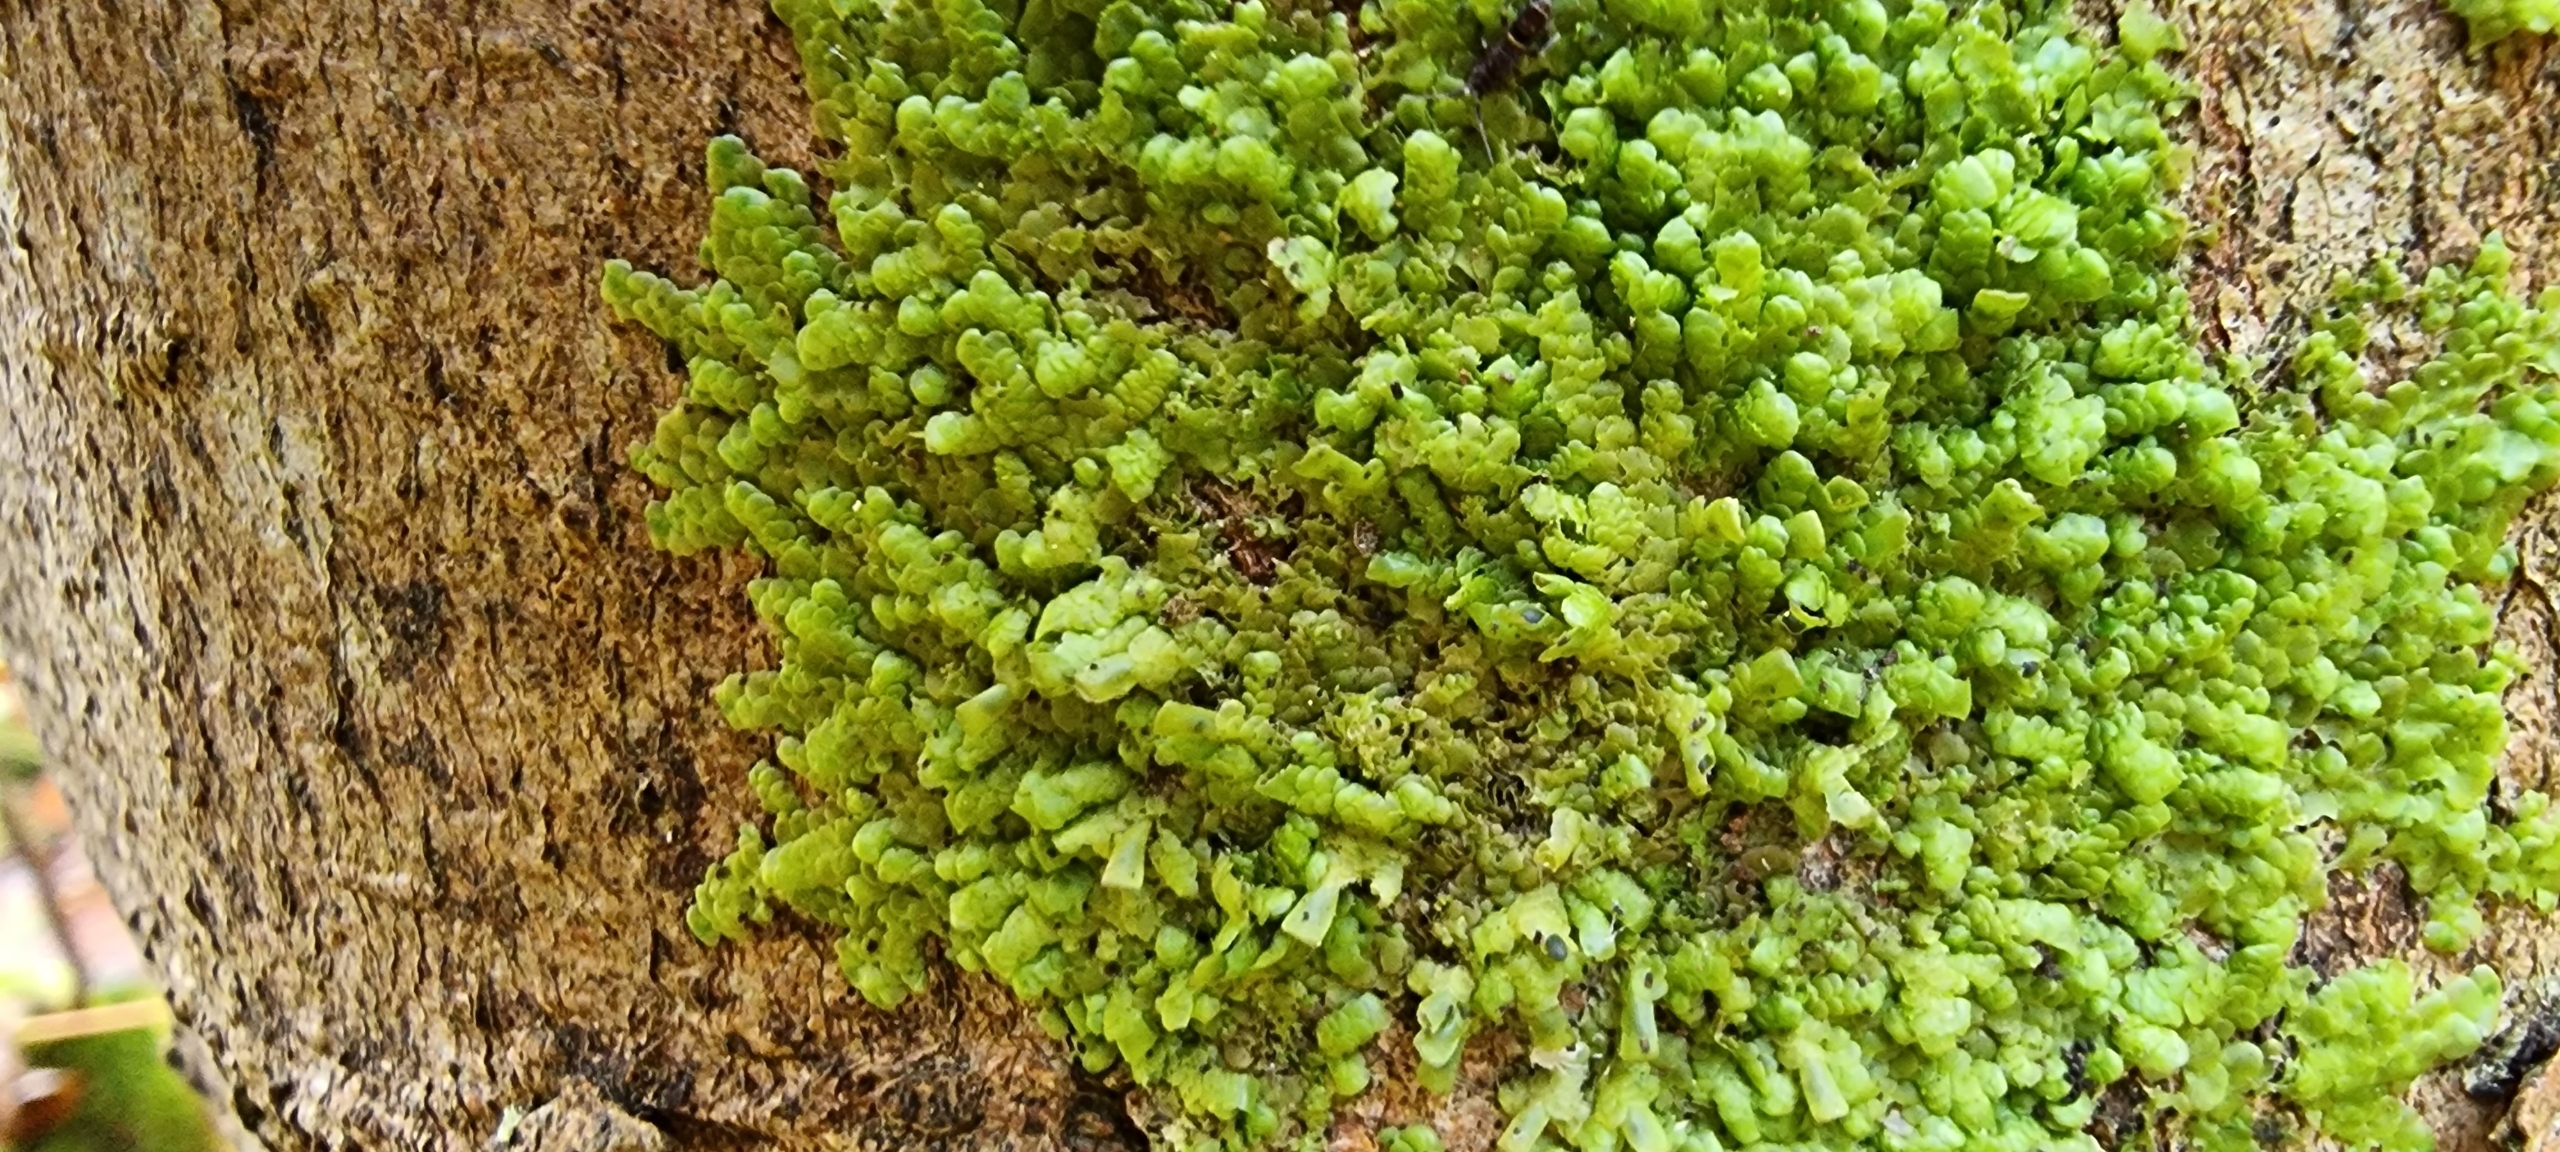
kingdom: Plantae
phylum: Marchantiophyta
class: Jungermanniopsida
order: Porellales
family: Radulaceae
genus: Radula
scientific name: Radula complanata
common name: Almindelig spartelmos (underart)
